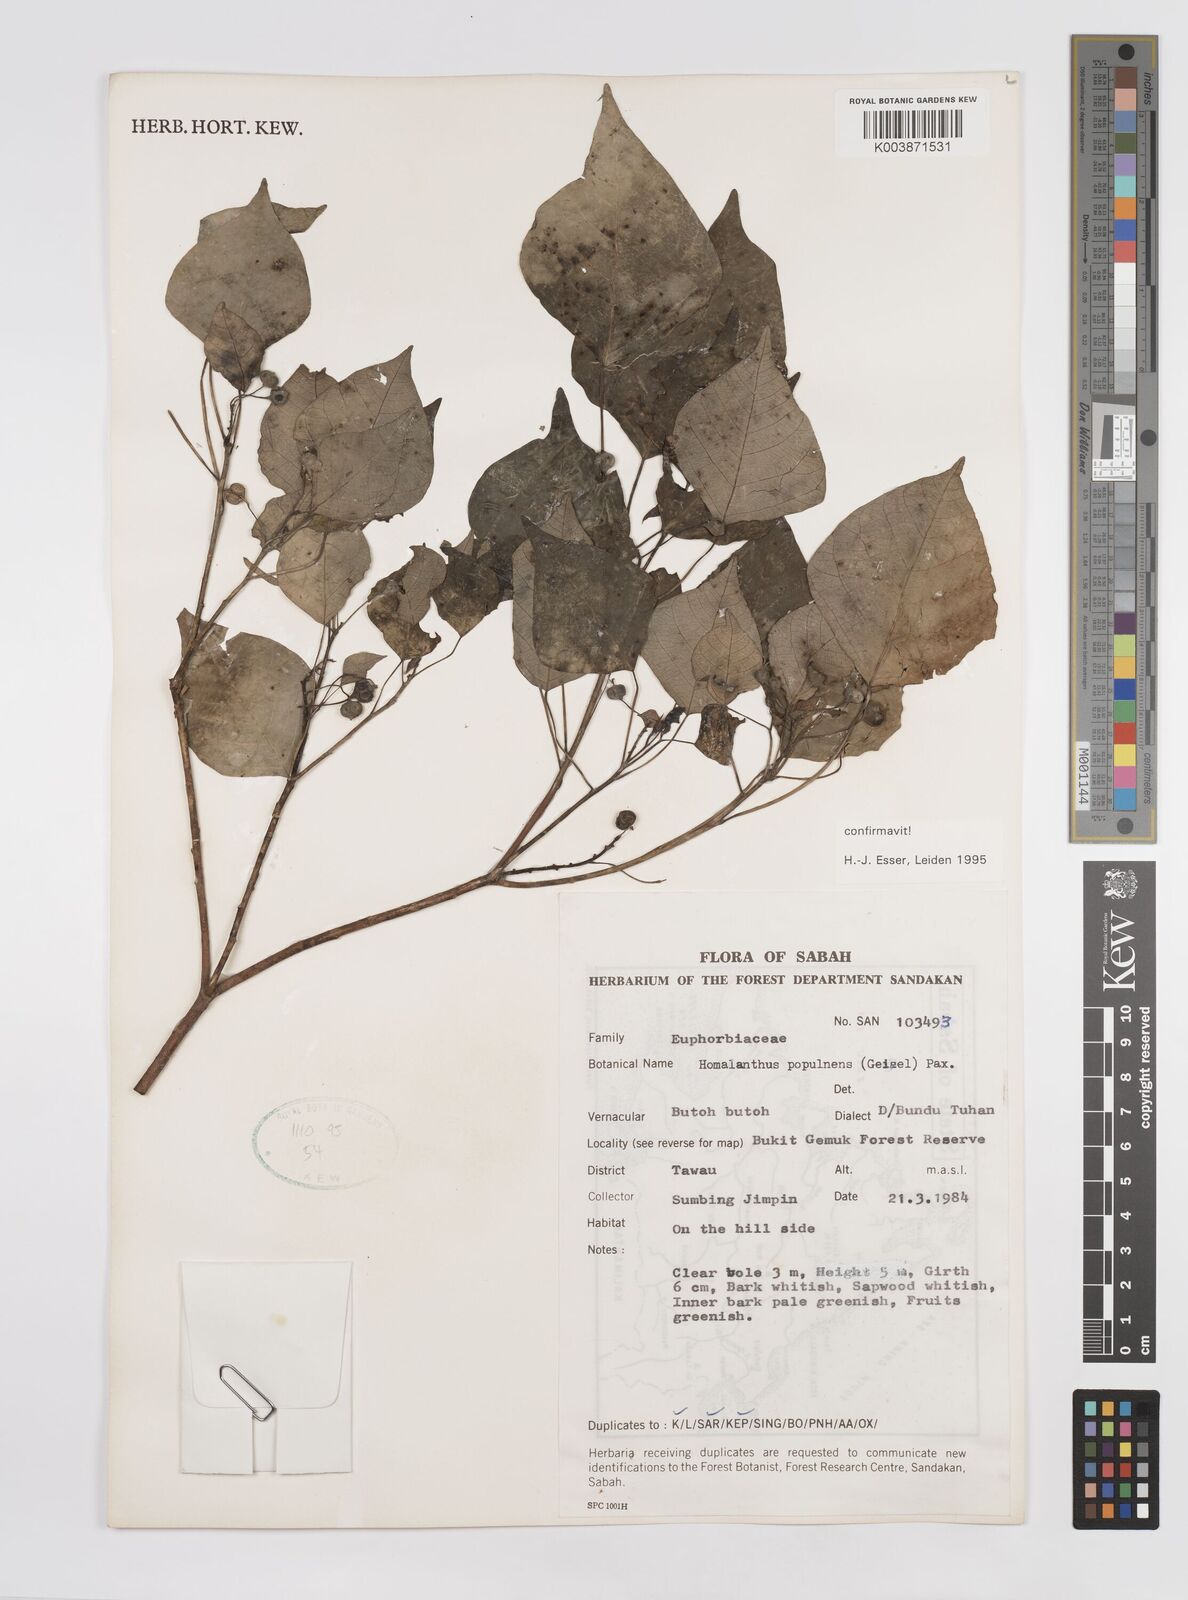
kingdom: Plantae
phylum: Tracheophyta
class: Magnoliopsida
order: Malpighiales
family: Euphorbiaceae
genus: Homalanthus
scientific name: Homalanthus populneus
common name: Spurge
